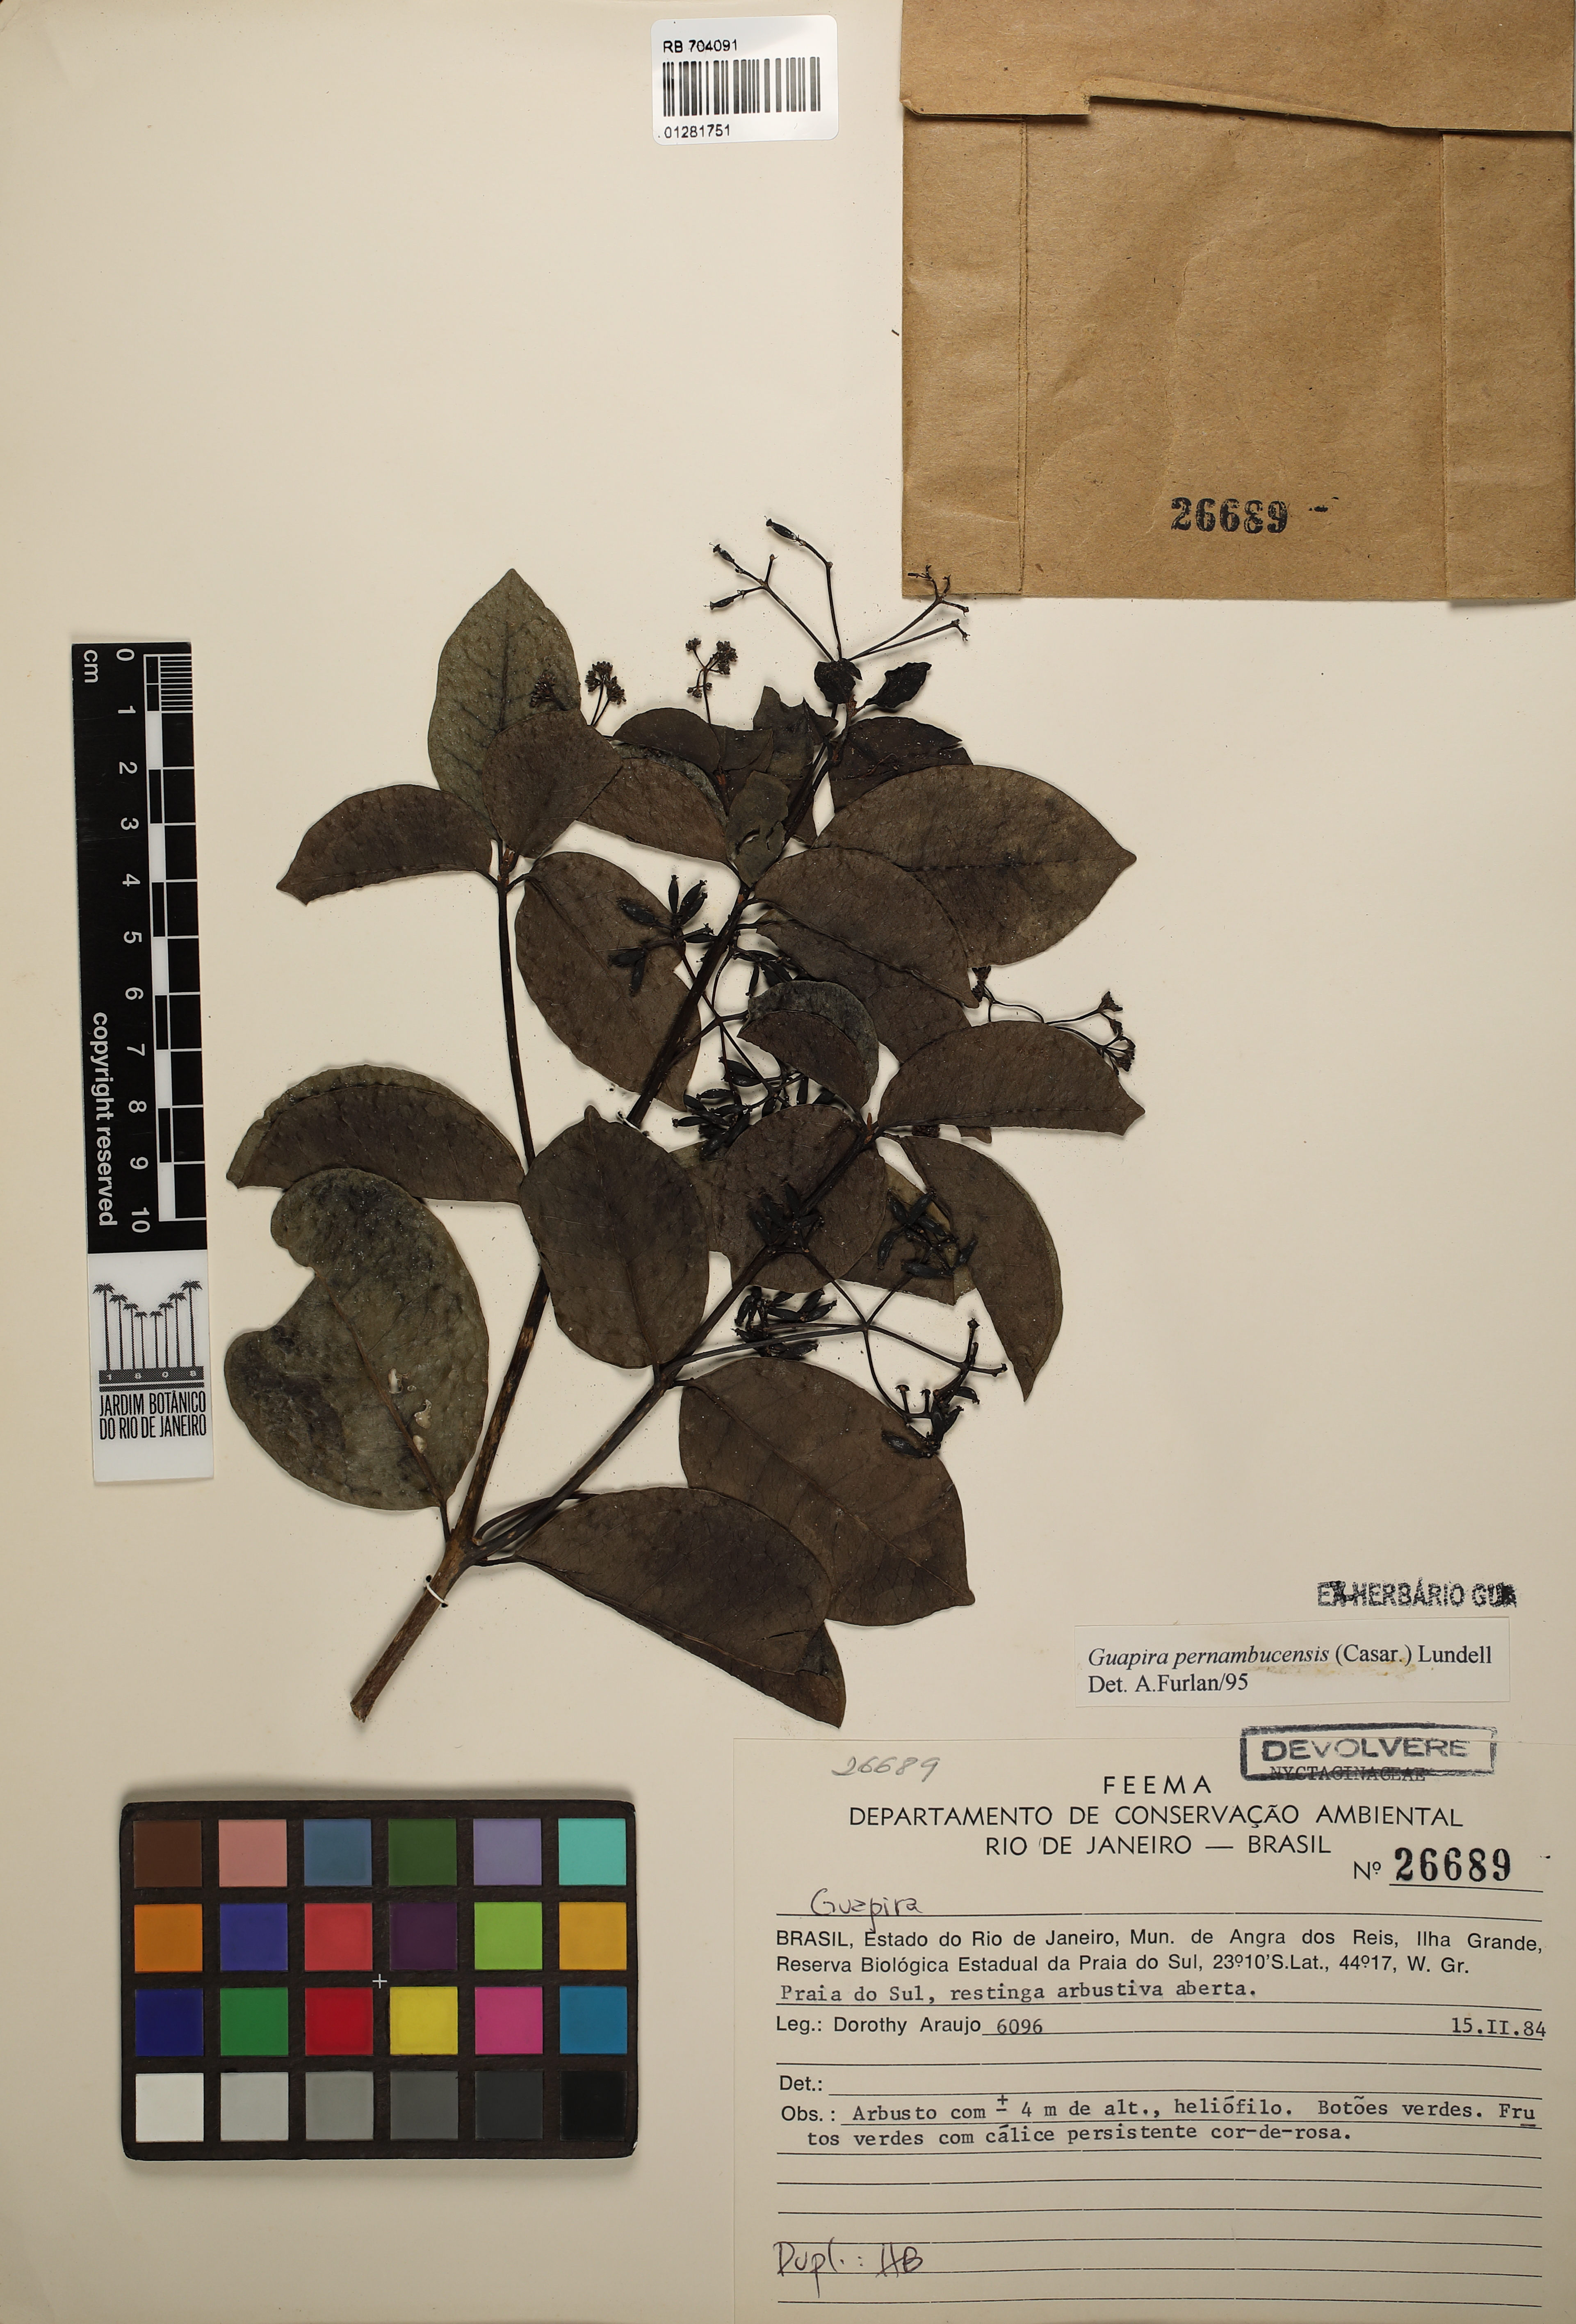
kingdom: Plantae
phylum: Tracheophyta
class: Magnoliopsida
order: Caryophyllales
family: Nyctaginaceae
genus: Guapira
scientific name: Guapira pernambucensis
